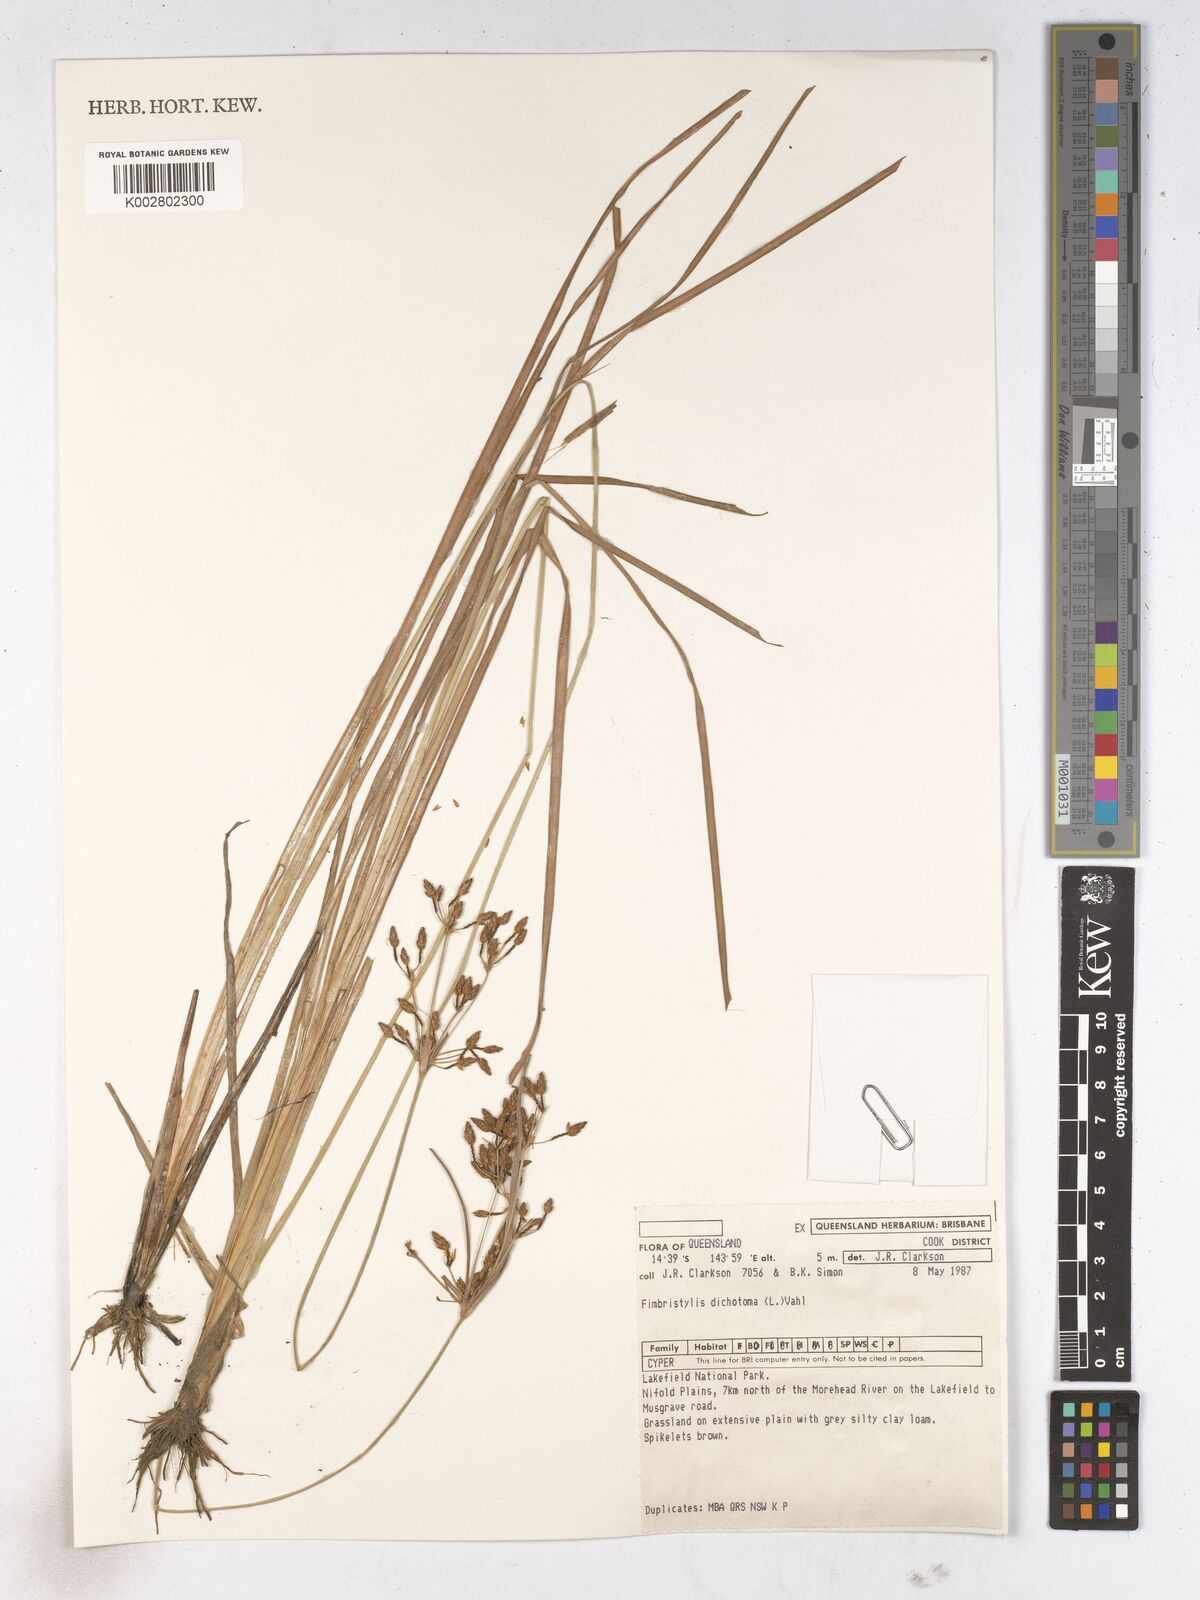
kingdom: Plantae
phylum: Tracheophyta
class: Liliopsida
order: Poales
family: Cyperaceae
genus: Fimbristylis
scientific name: Fimbristylis dichotoma
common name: Forked fimbry
